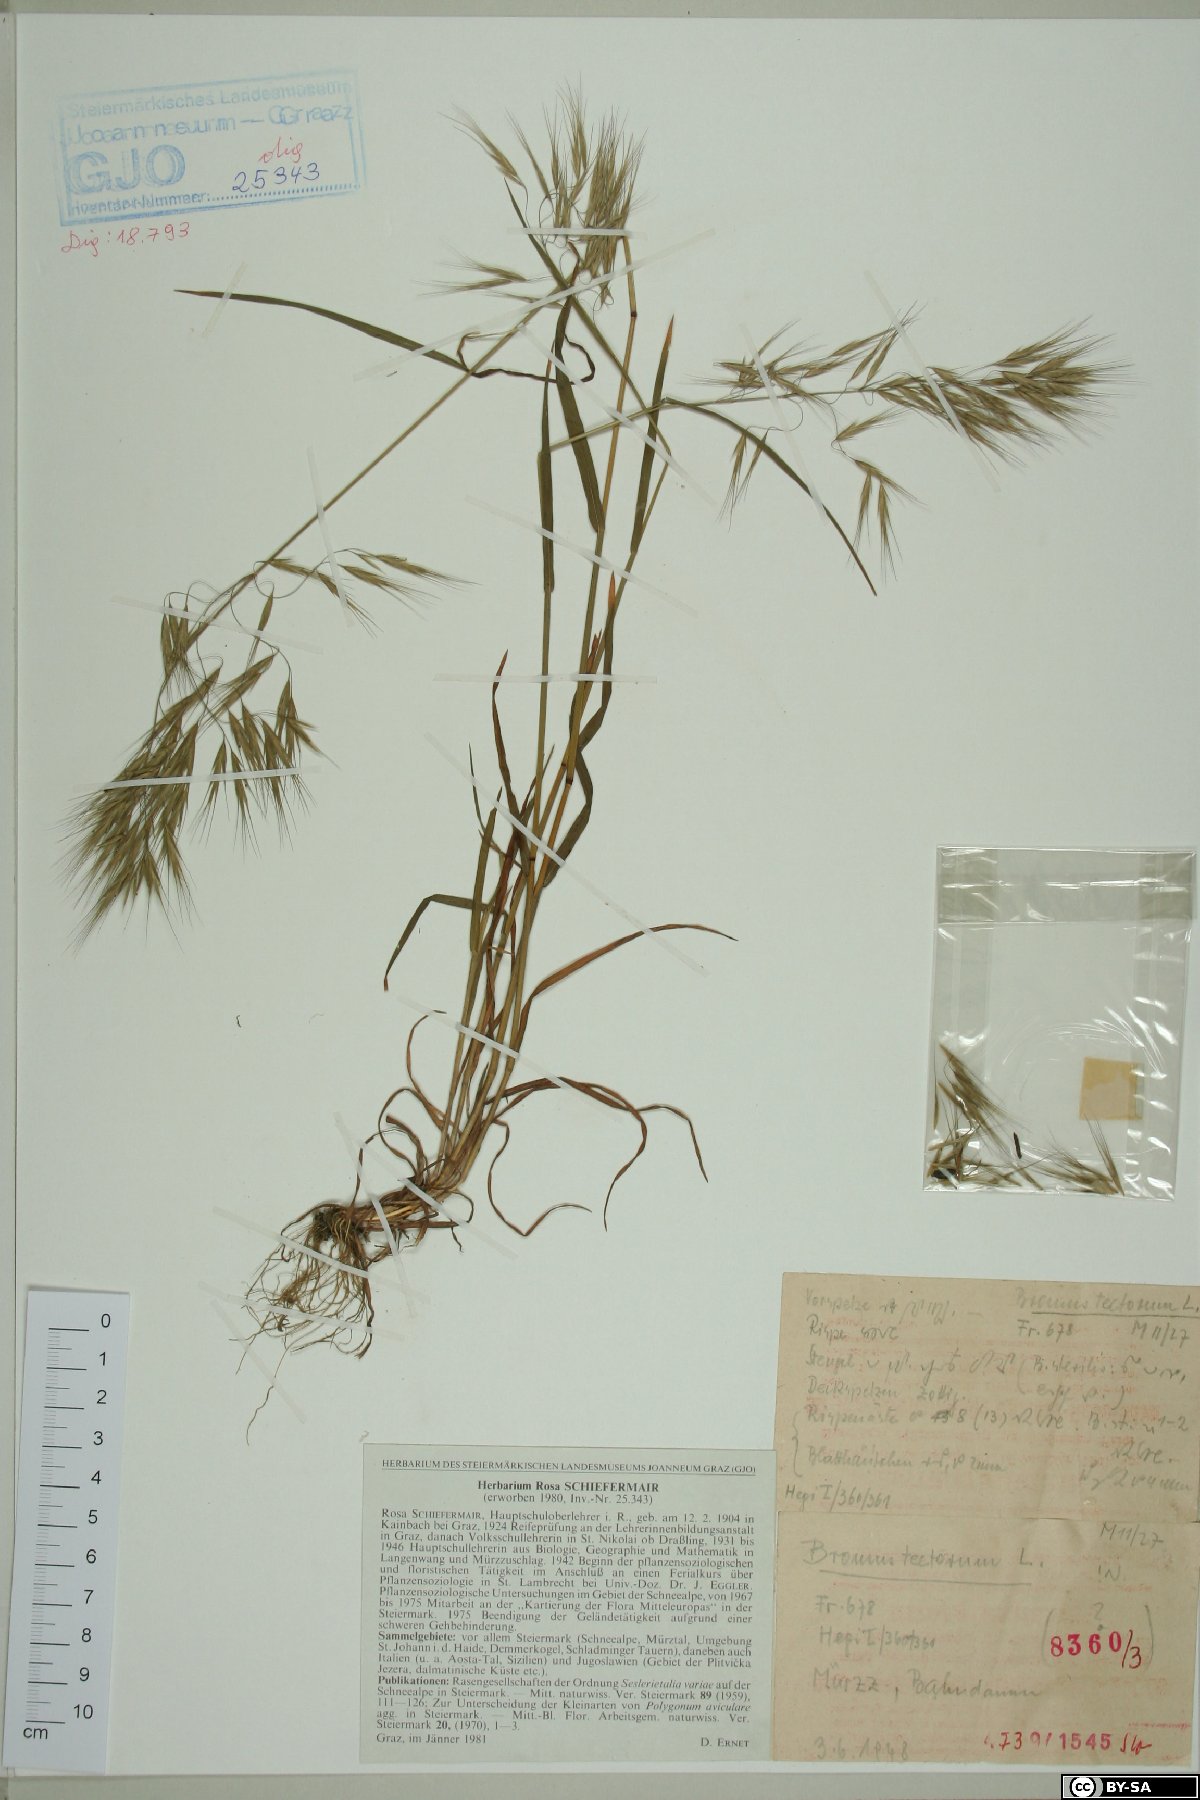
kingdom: Plantae
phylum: Tracheophyta
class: Liliopsida
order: Poales
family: Poaceae
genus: Bromus
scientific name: Bromus tectorum
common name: Cheatgrass
